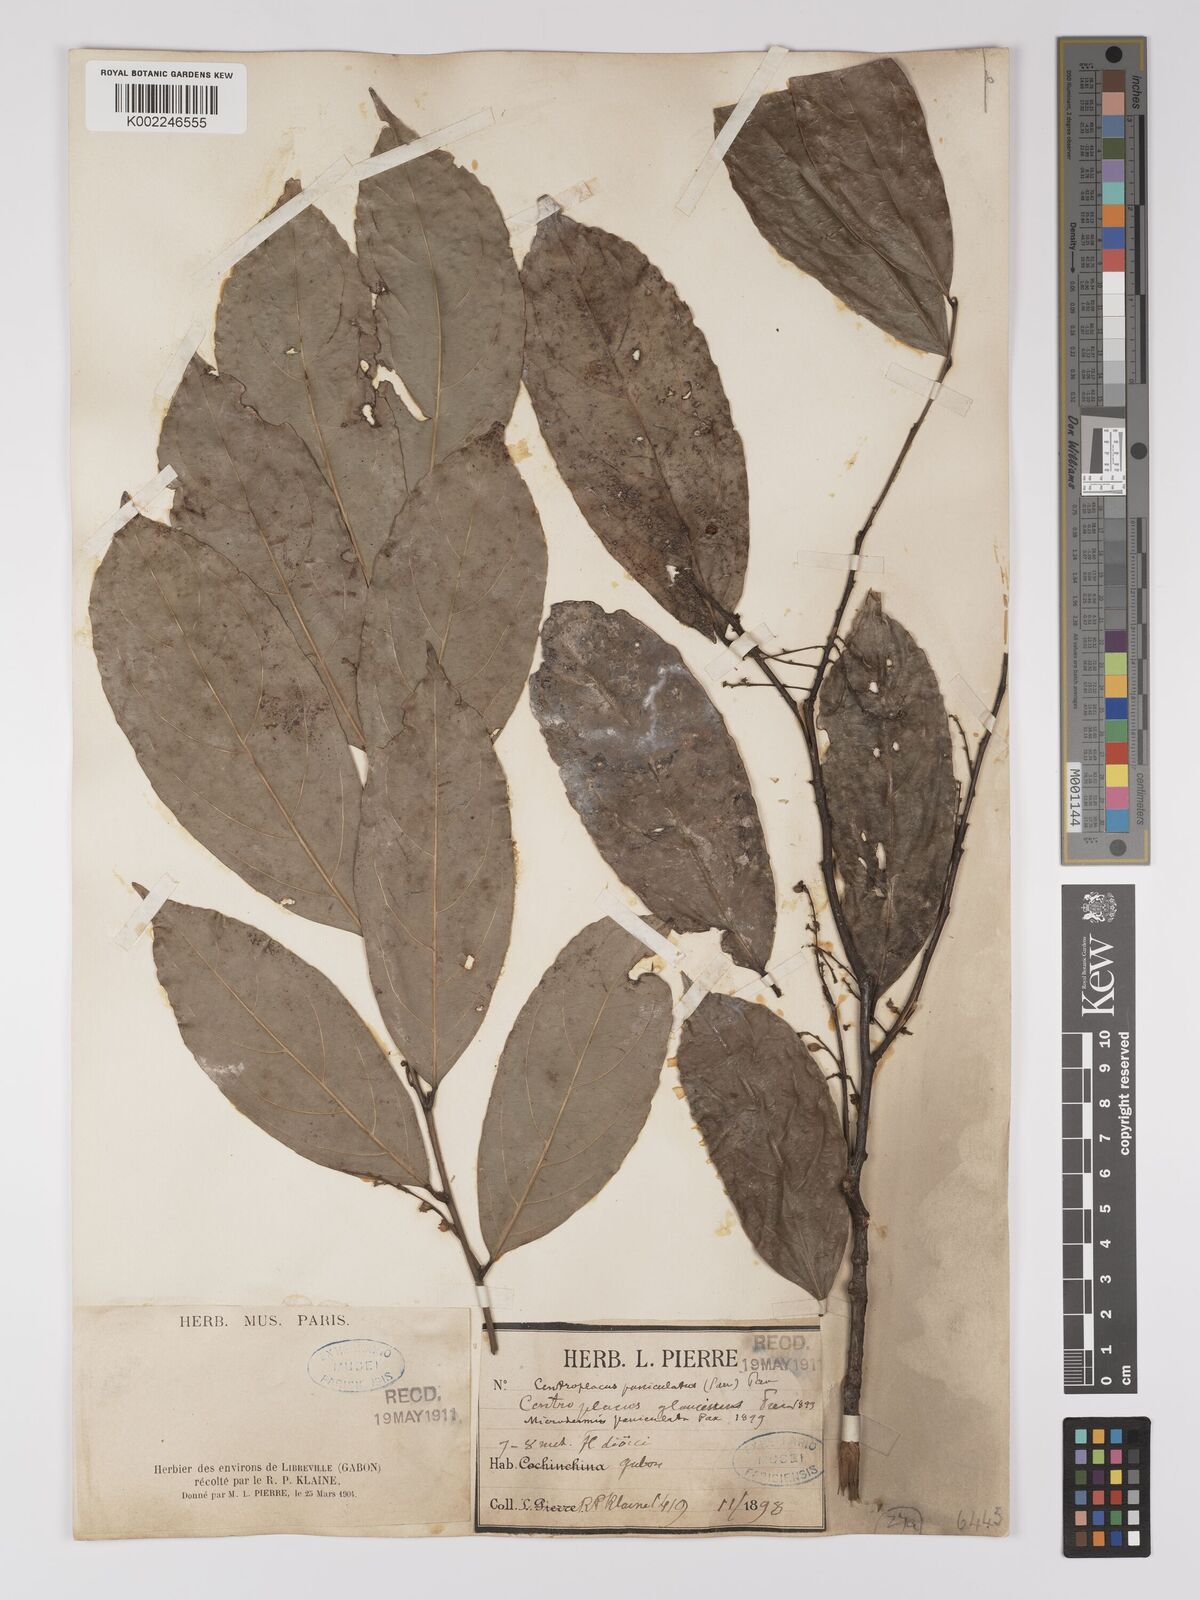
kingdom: Plantae
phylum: Tracheophyta
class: Magnoliopsida
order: Malpighiales
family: Centroplacaceae
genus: Centroplacus
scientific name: Centroplacus glaucinus
